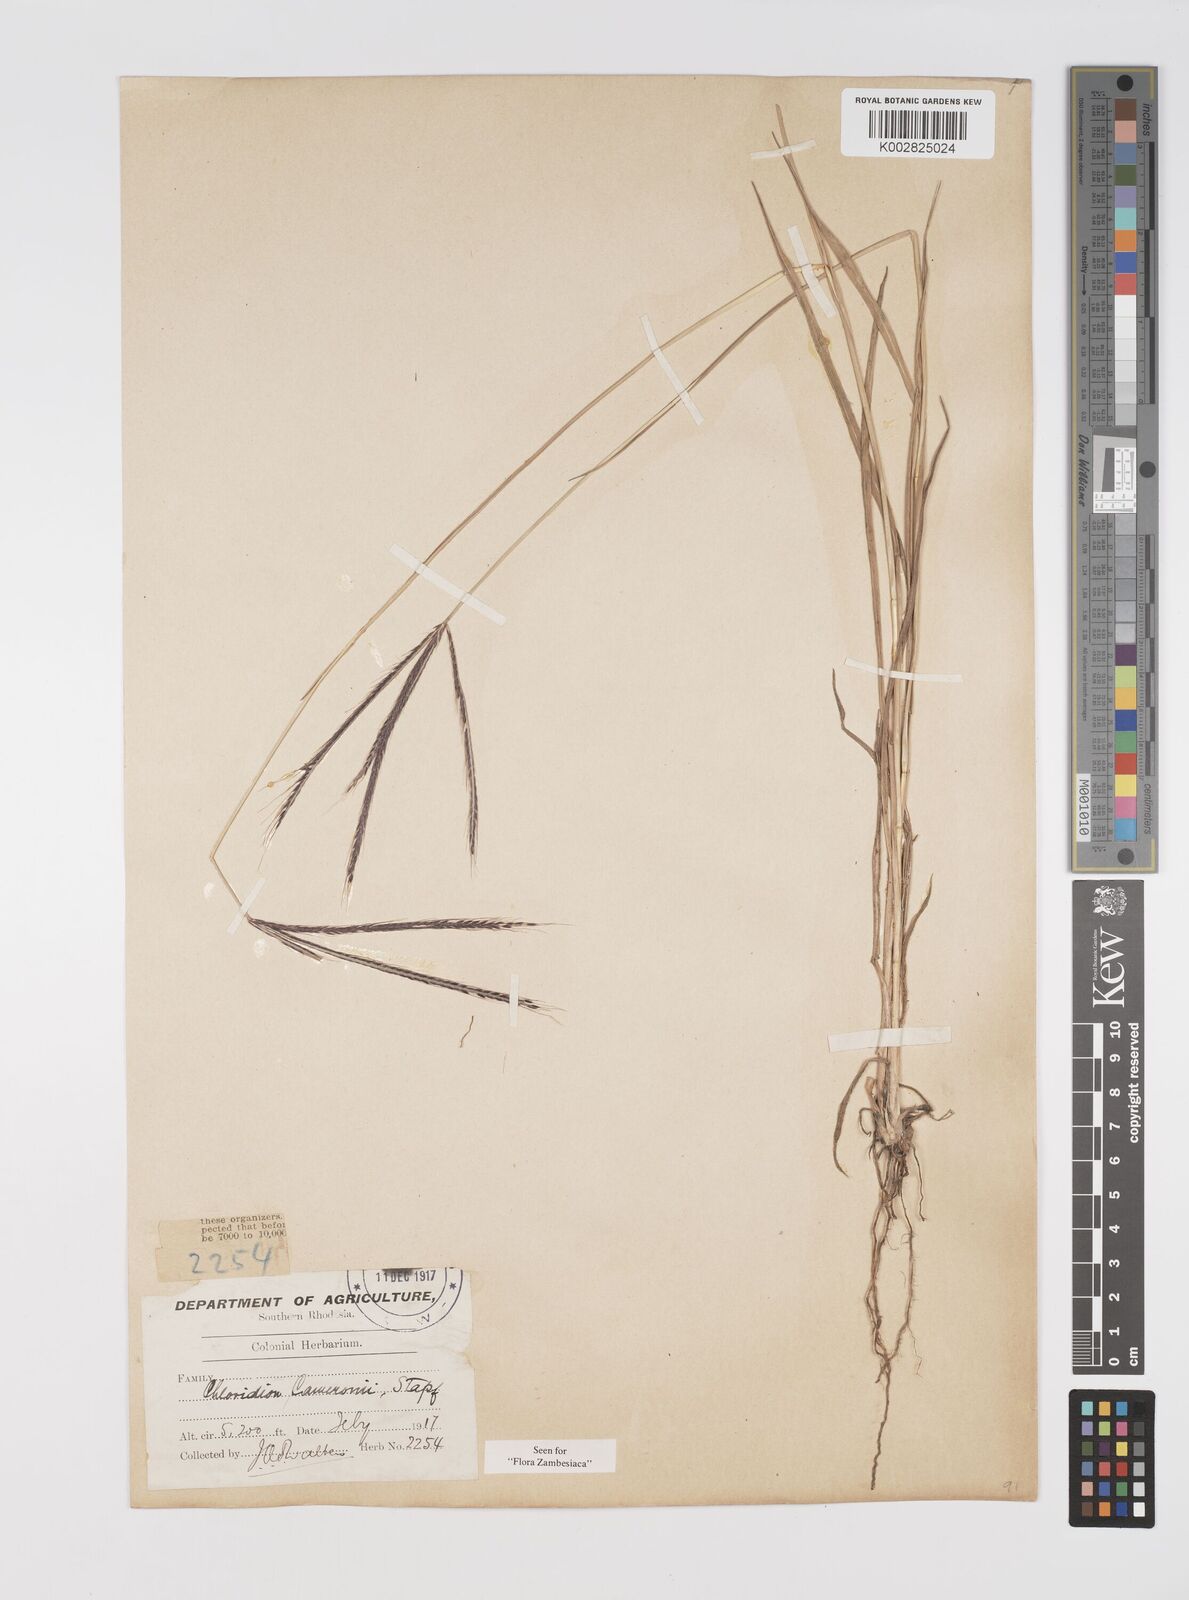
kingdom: Plantae
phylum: Tracheophyta
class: Liliopsida
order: Poales
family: Poaceae
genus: Stereochlaena
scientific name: Stereochlaena cameronii
